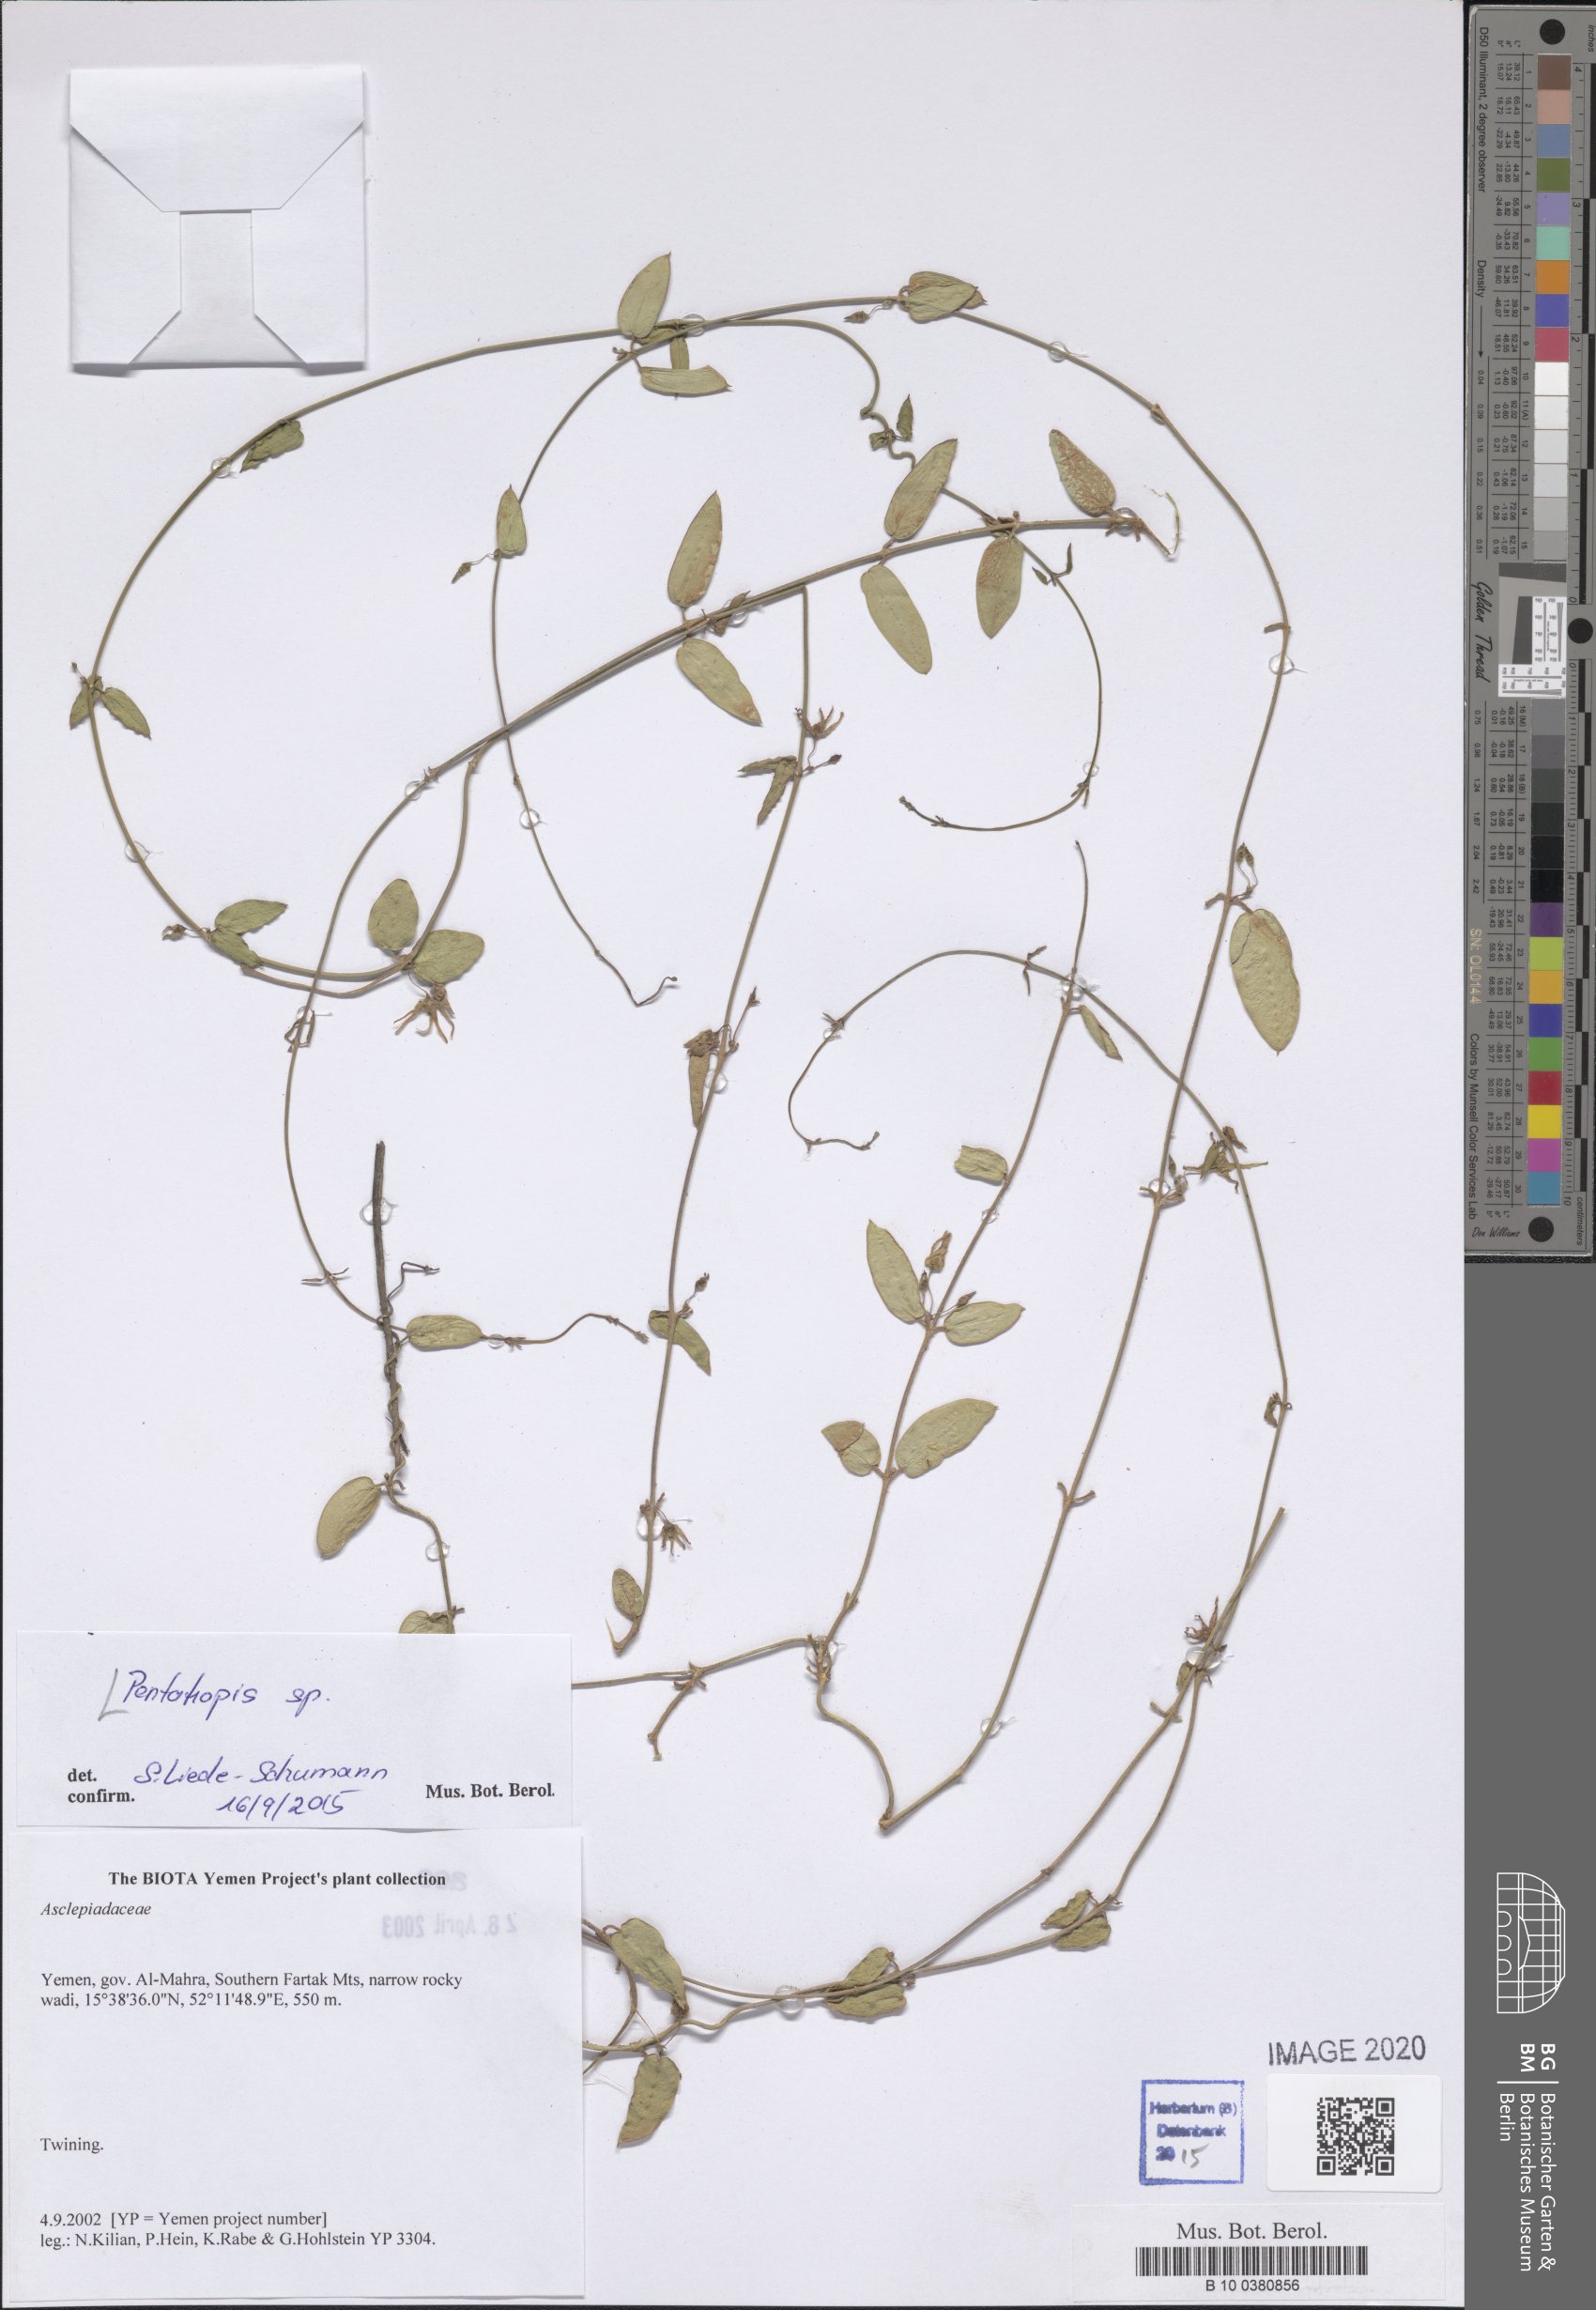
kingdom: Plantae
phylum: Tracheophyta
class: Magnoliopsida
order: Gentianales
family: Apocynaceae
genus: Pentatropis
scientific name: Pentatropis nivalis
